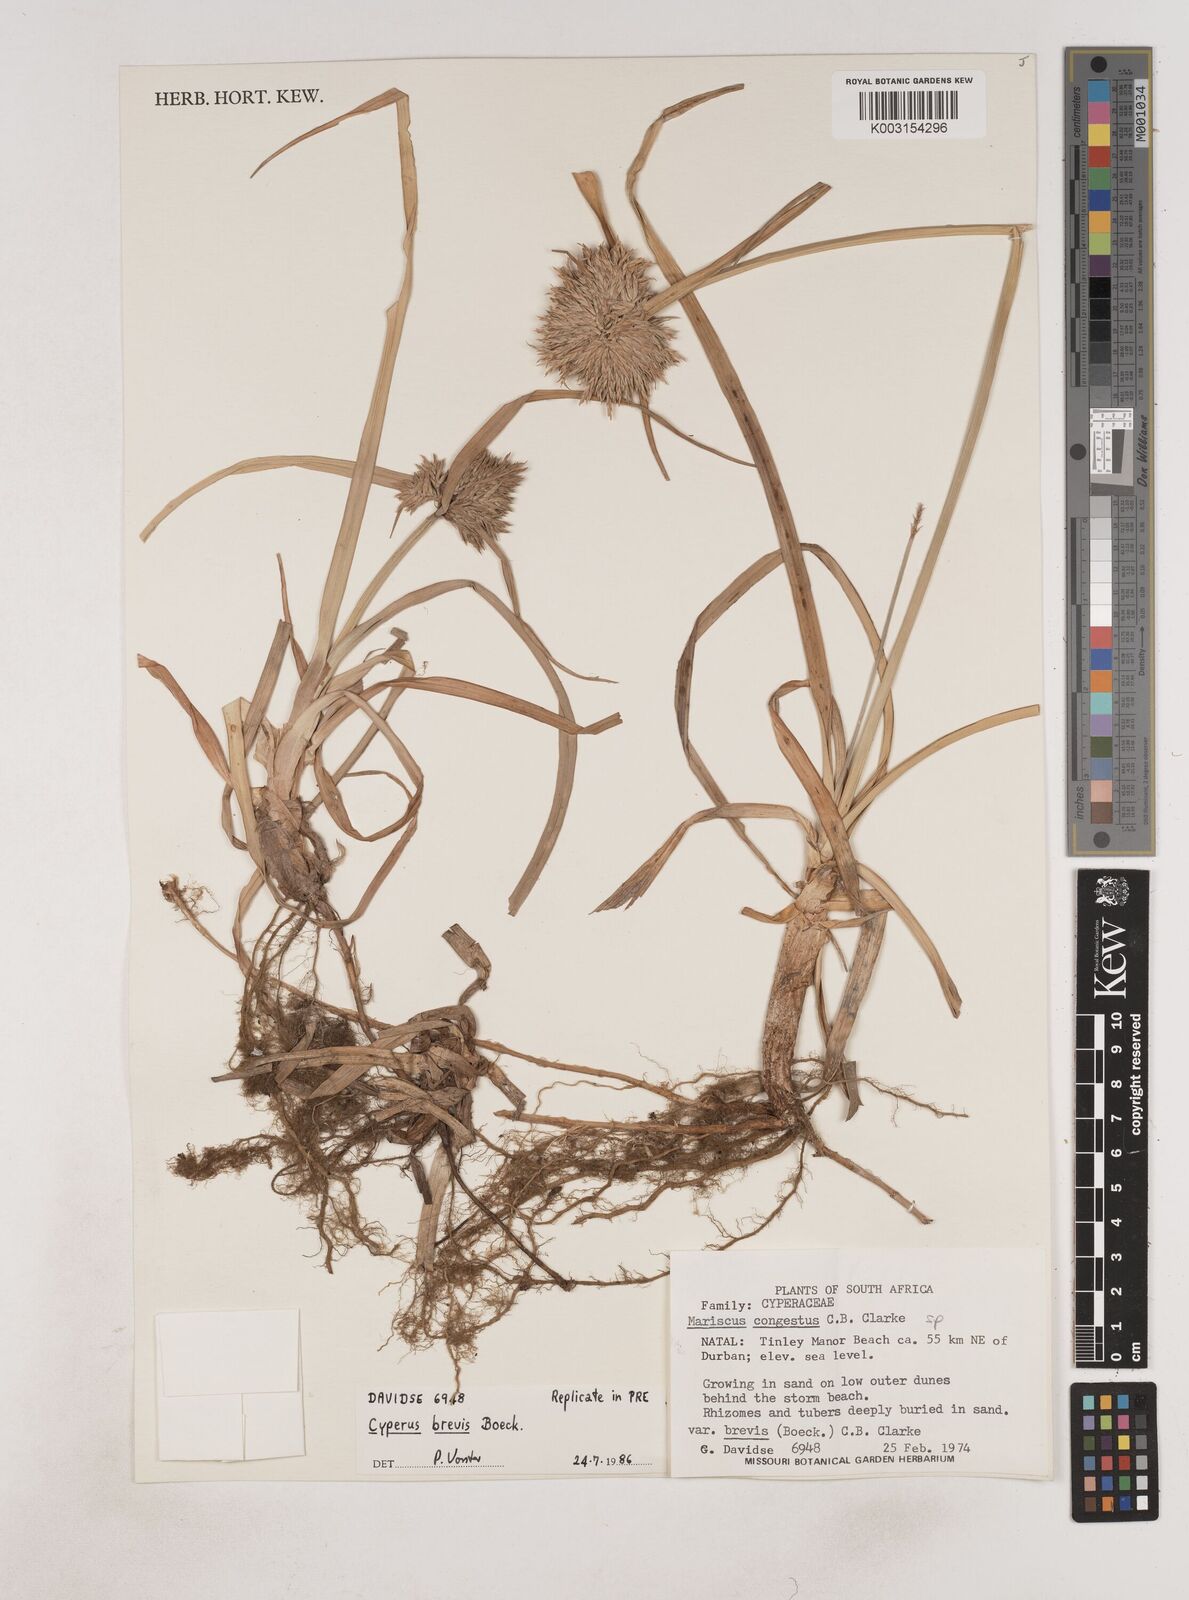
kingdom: Plantae
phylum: Tracheophyta
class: Liliopsida
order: Poales
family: Cyperaceae
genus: Cyperus
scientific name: Cyperus congestus
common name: Dense flat sedge
